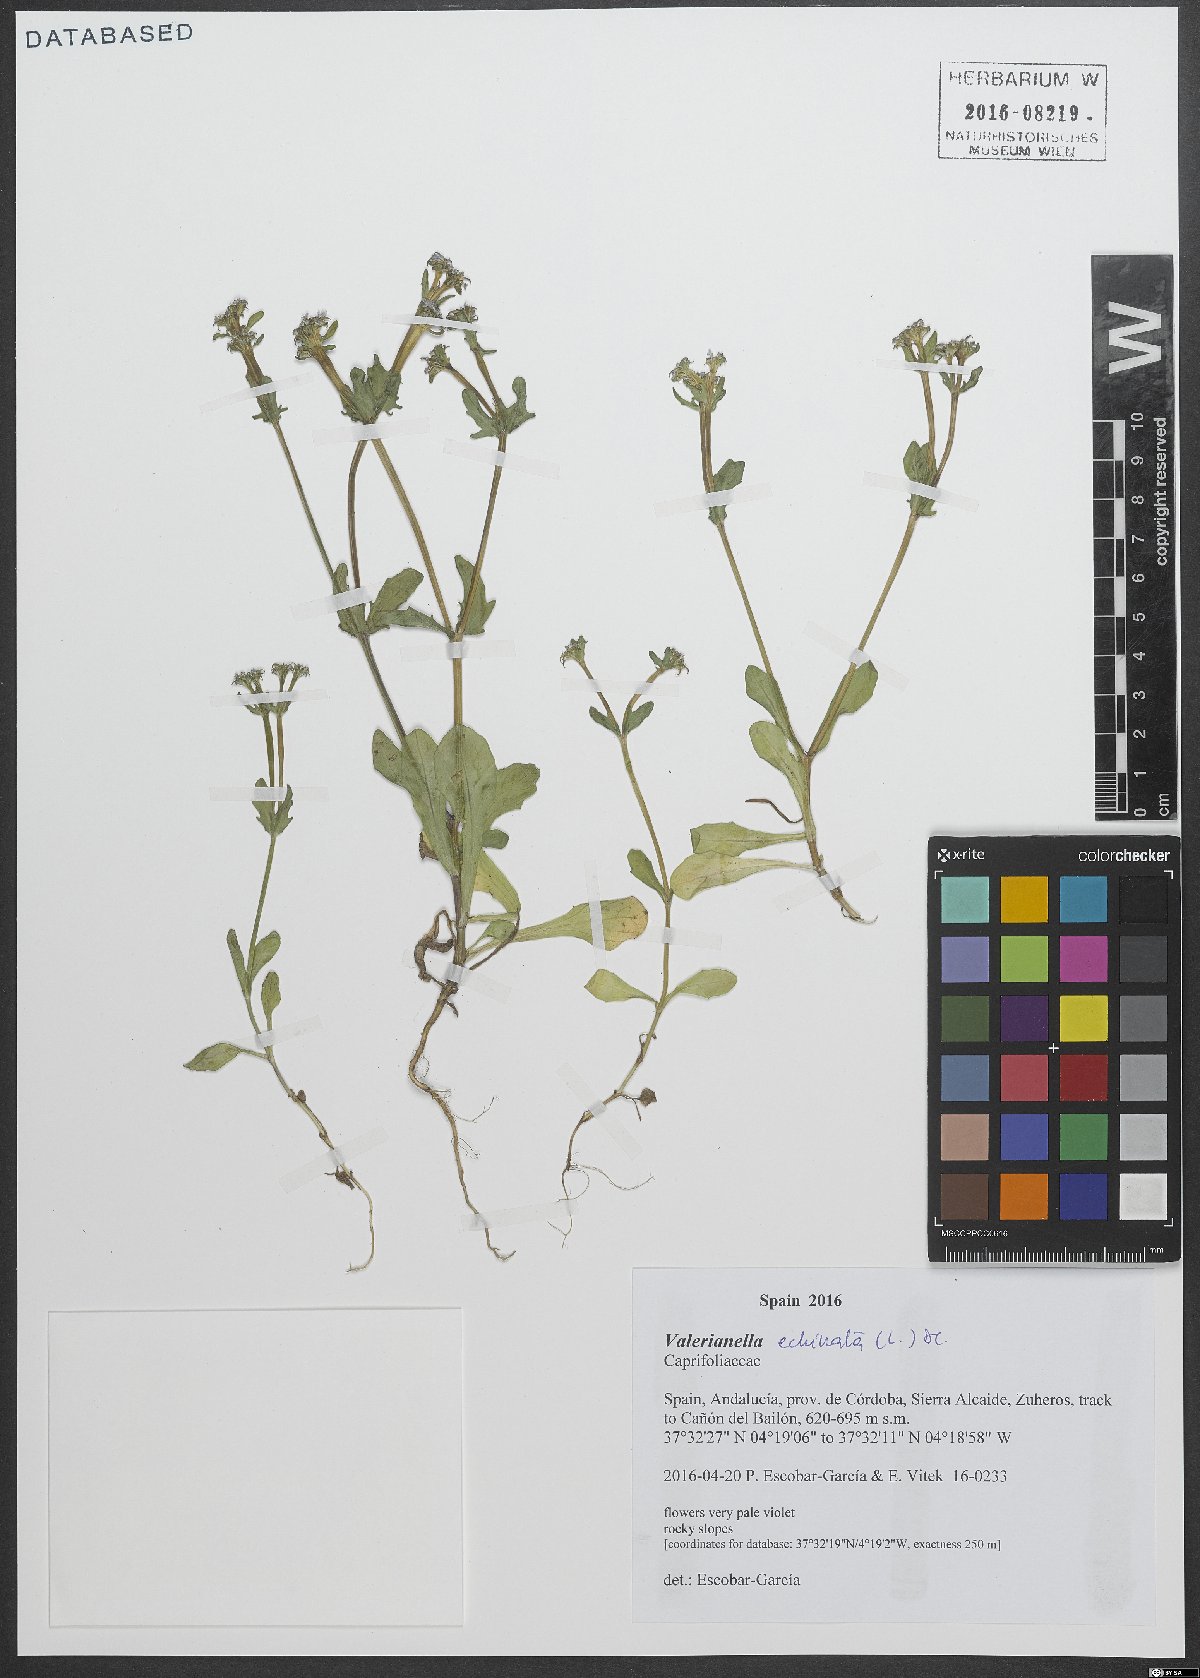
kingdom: Plantae
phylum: Tracheophyta
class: Magnoliopsida
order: Dipsacales
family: Caprifoliaceae
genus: Valerianella
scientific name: Valerianella echinata
